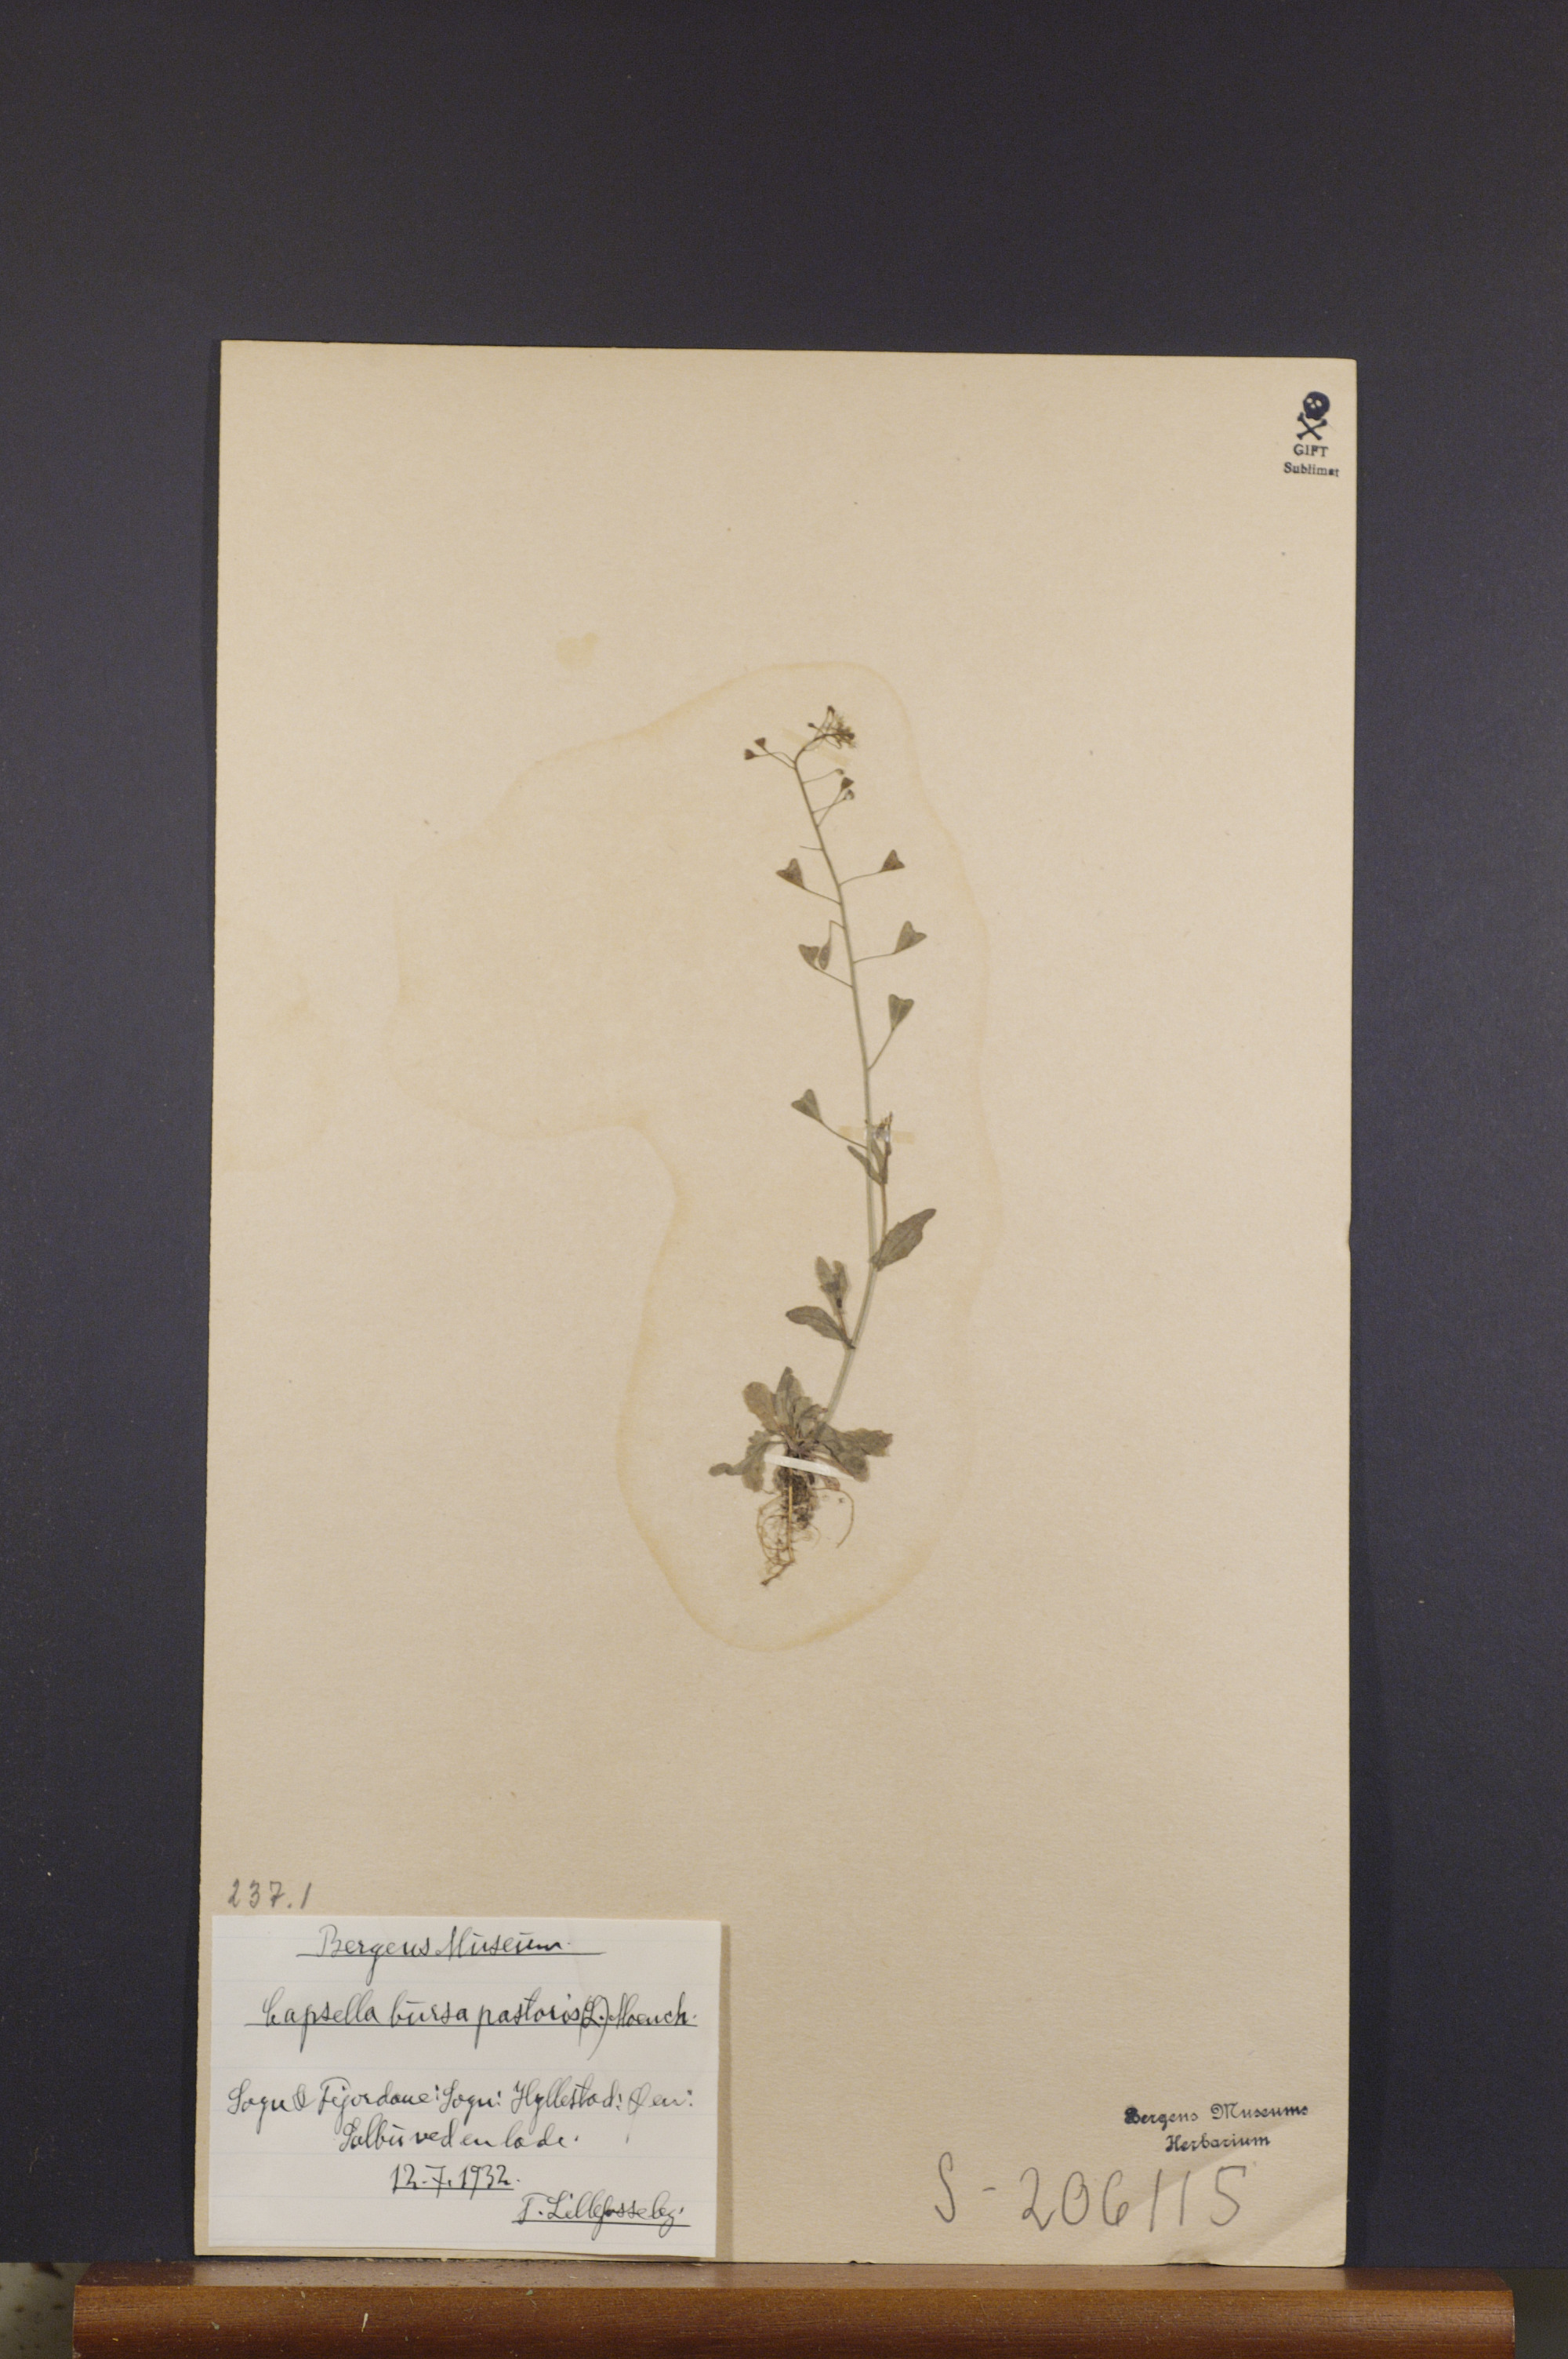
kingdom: Plantae
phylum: Tracheophyta
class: Magnoliopsida
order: Brassicales
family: Brassicaceae
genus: Capsella
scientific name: Capsella bursa-pastoris
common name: Shepherd's purse
